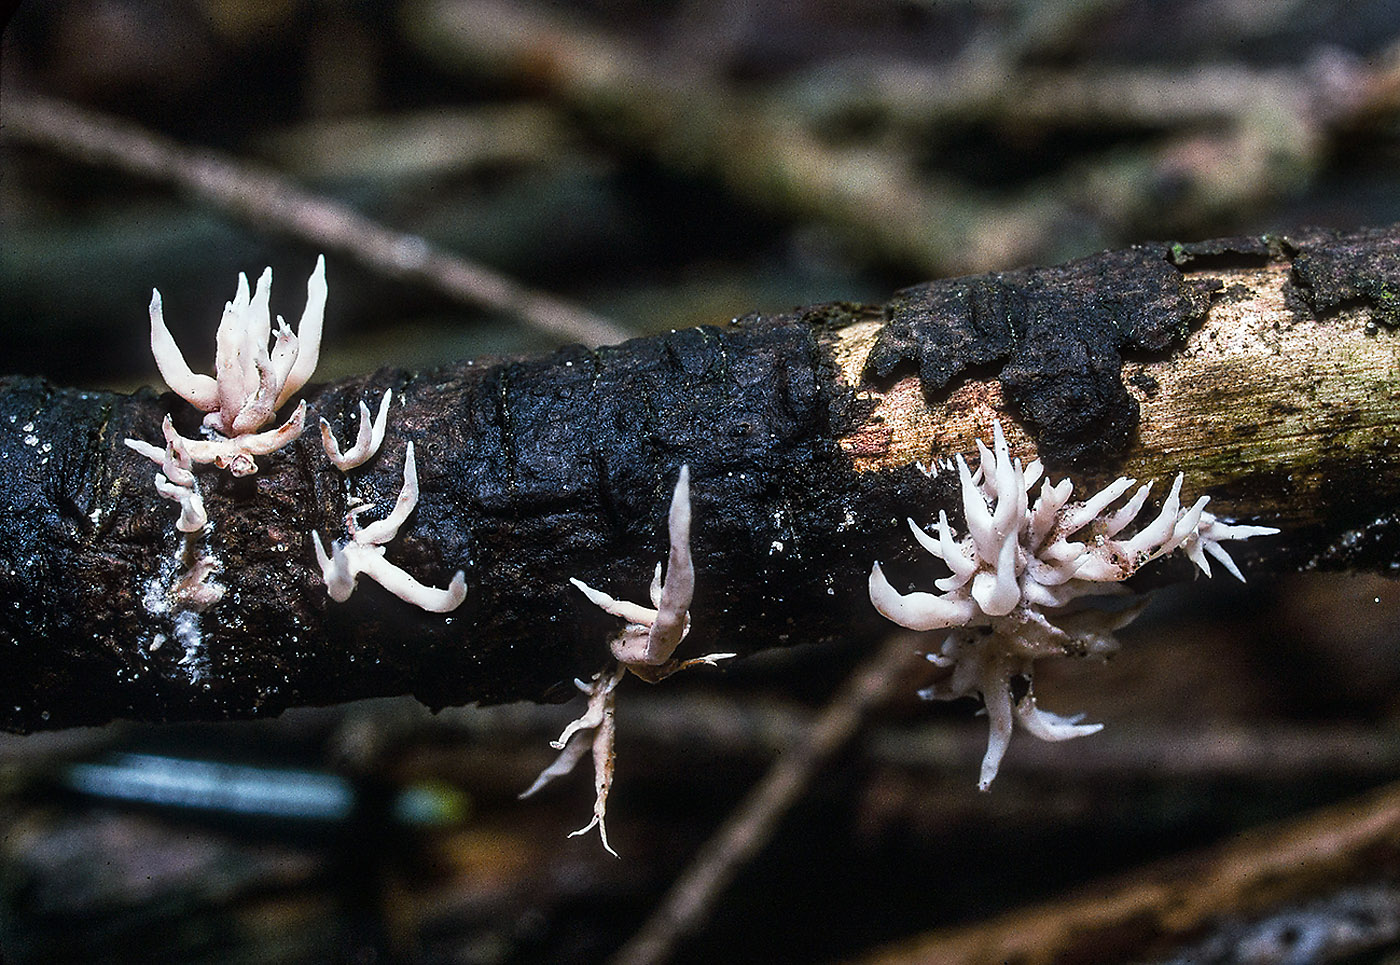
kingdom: Fungi
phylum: Basidiomycota
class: Agaricomycetes
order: Gomphales
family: Lentariaceae
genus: Lentaria
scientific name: Lentaria byssiseda
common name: kødfarvet grenkølle
